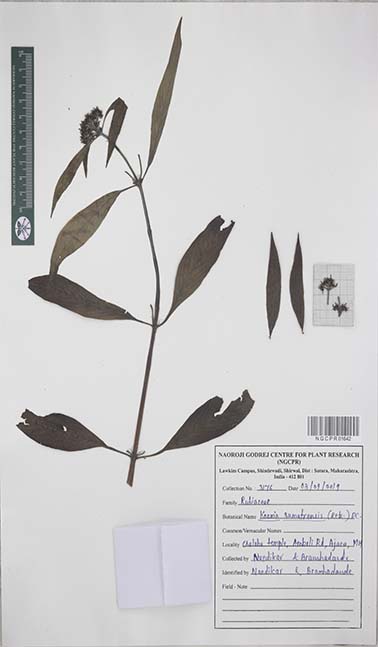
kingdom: Plantae
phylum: Tracheophyta
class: Magnoliopsida
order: Gentianales
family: Rubiaceae
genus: Knoxia
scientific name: Knoxia sumatrensis
